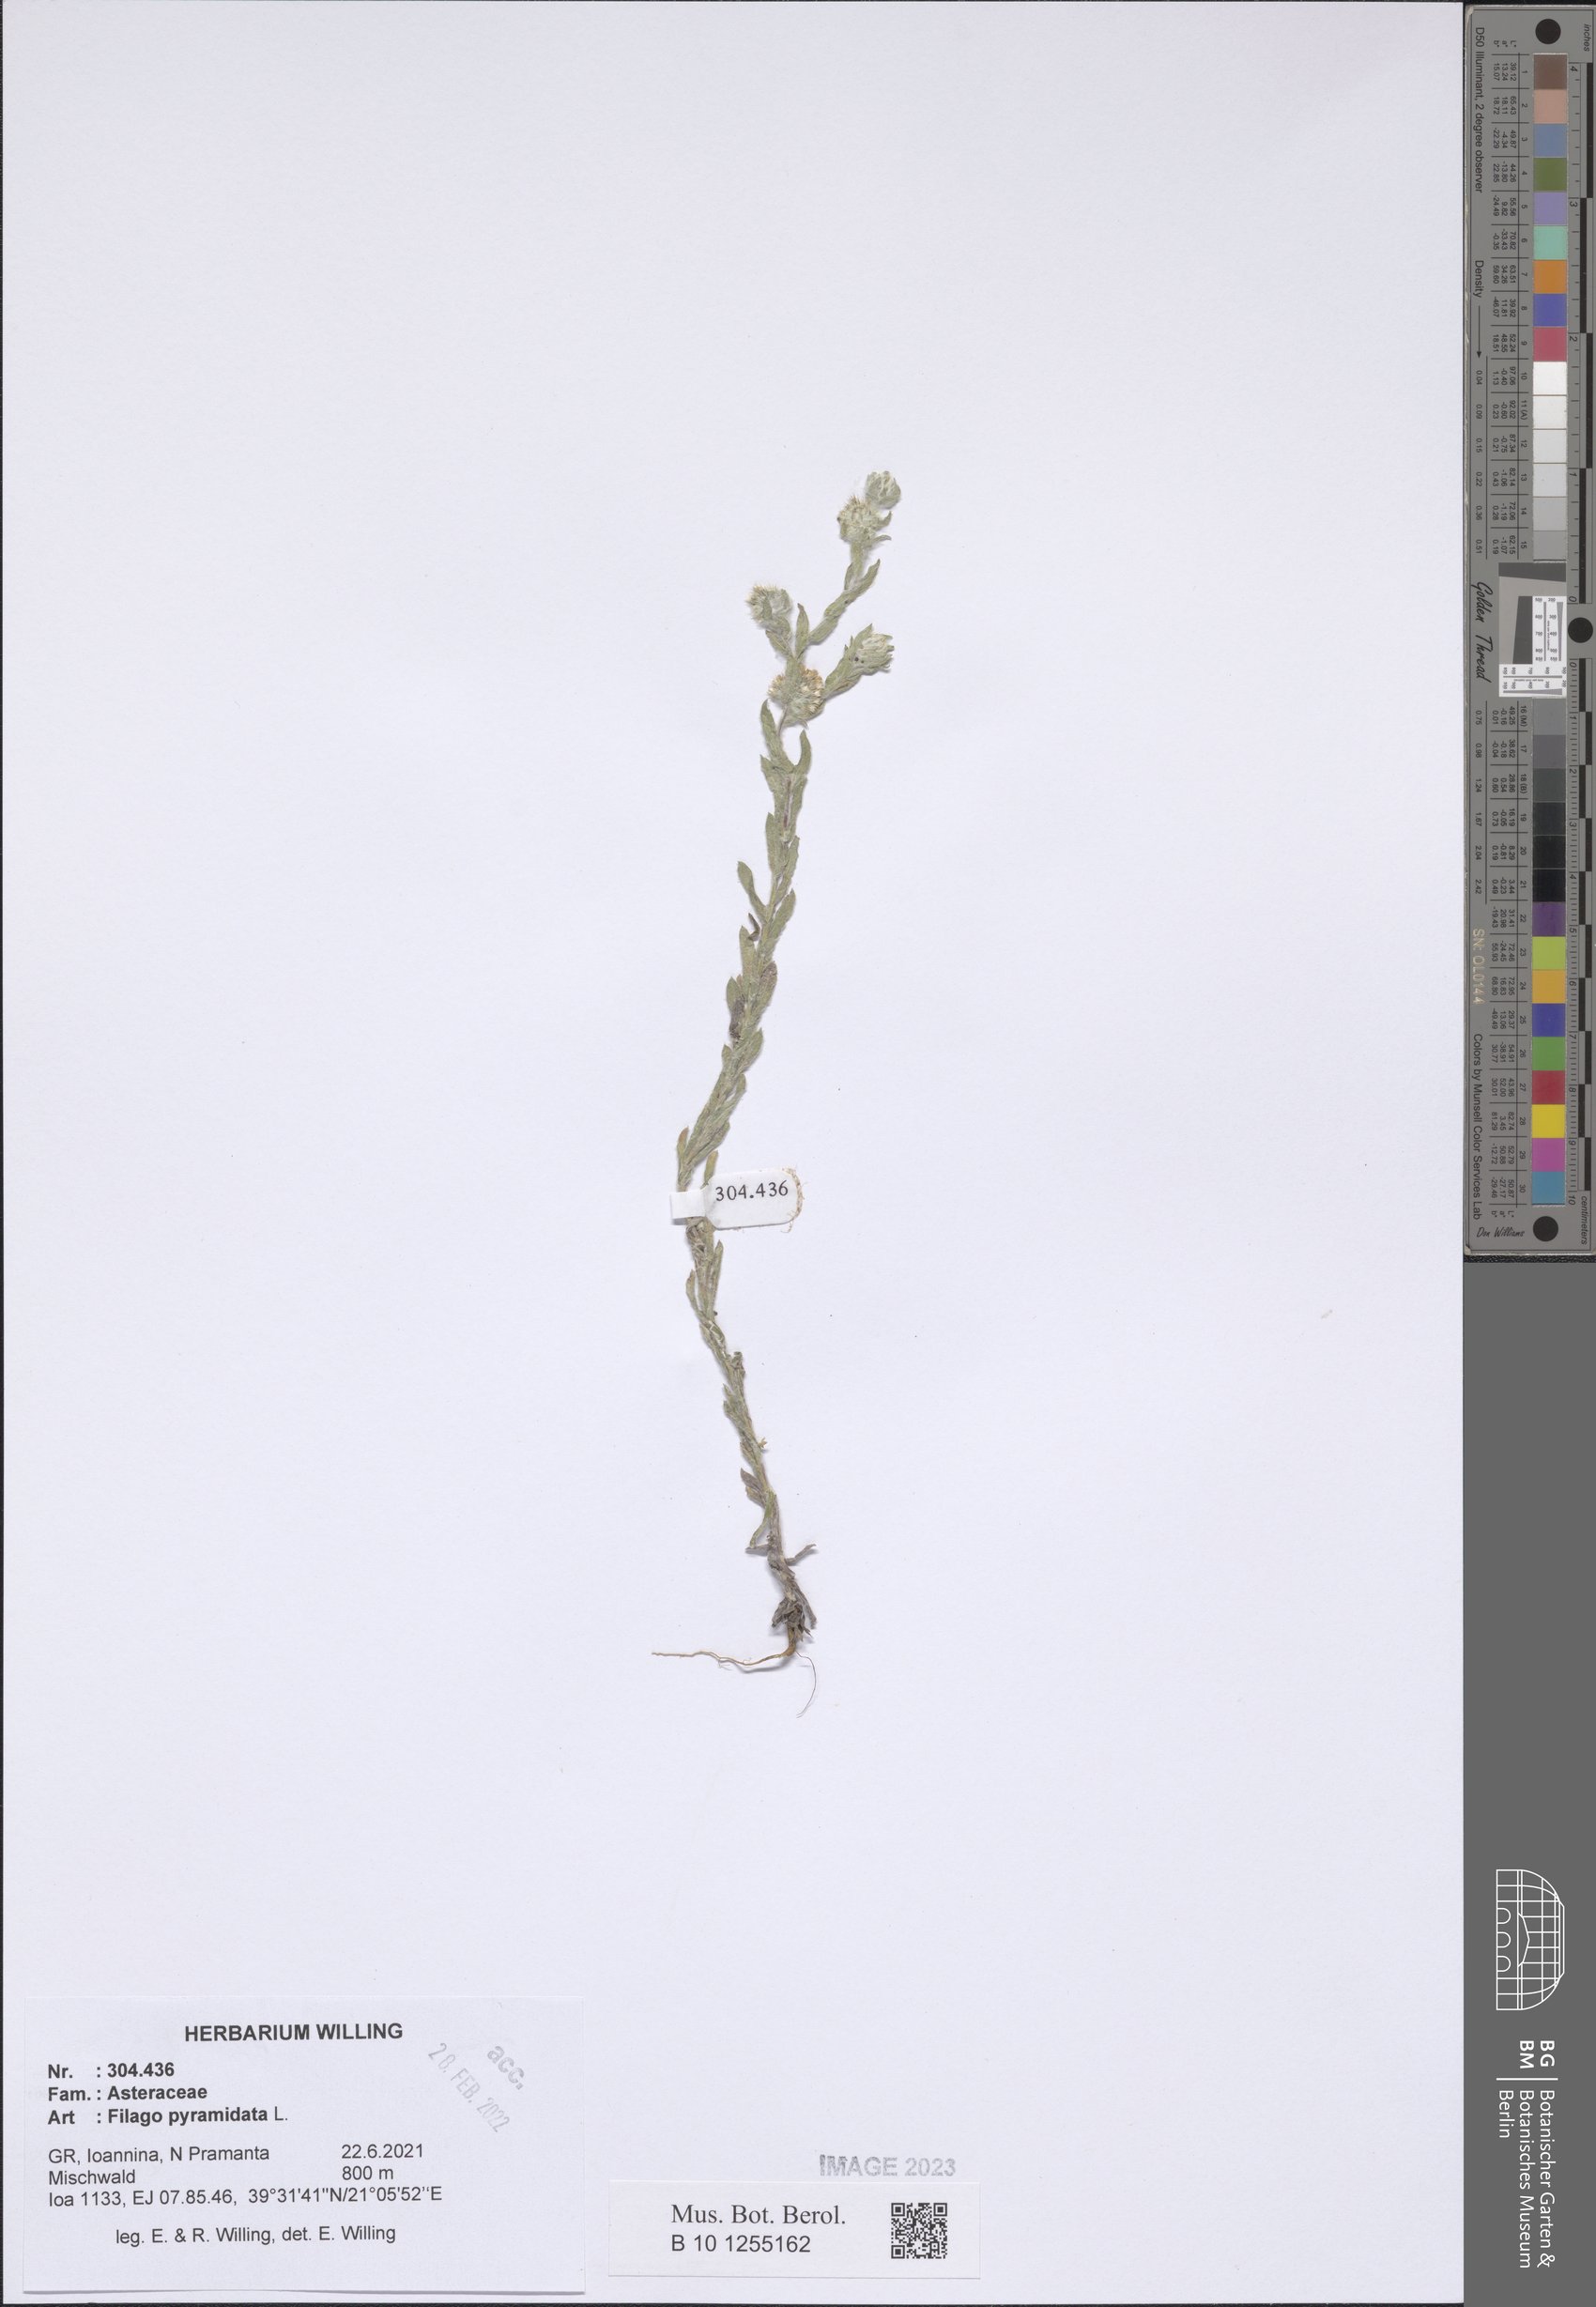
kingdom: Plantae
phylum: Tracheophyta
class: Magnoliopsida
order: Asterales
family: Asteraceae
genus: Filago
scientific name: Filago pyramidata
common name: Broad-leaved cudweed
